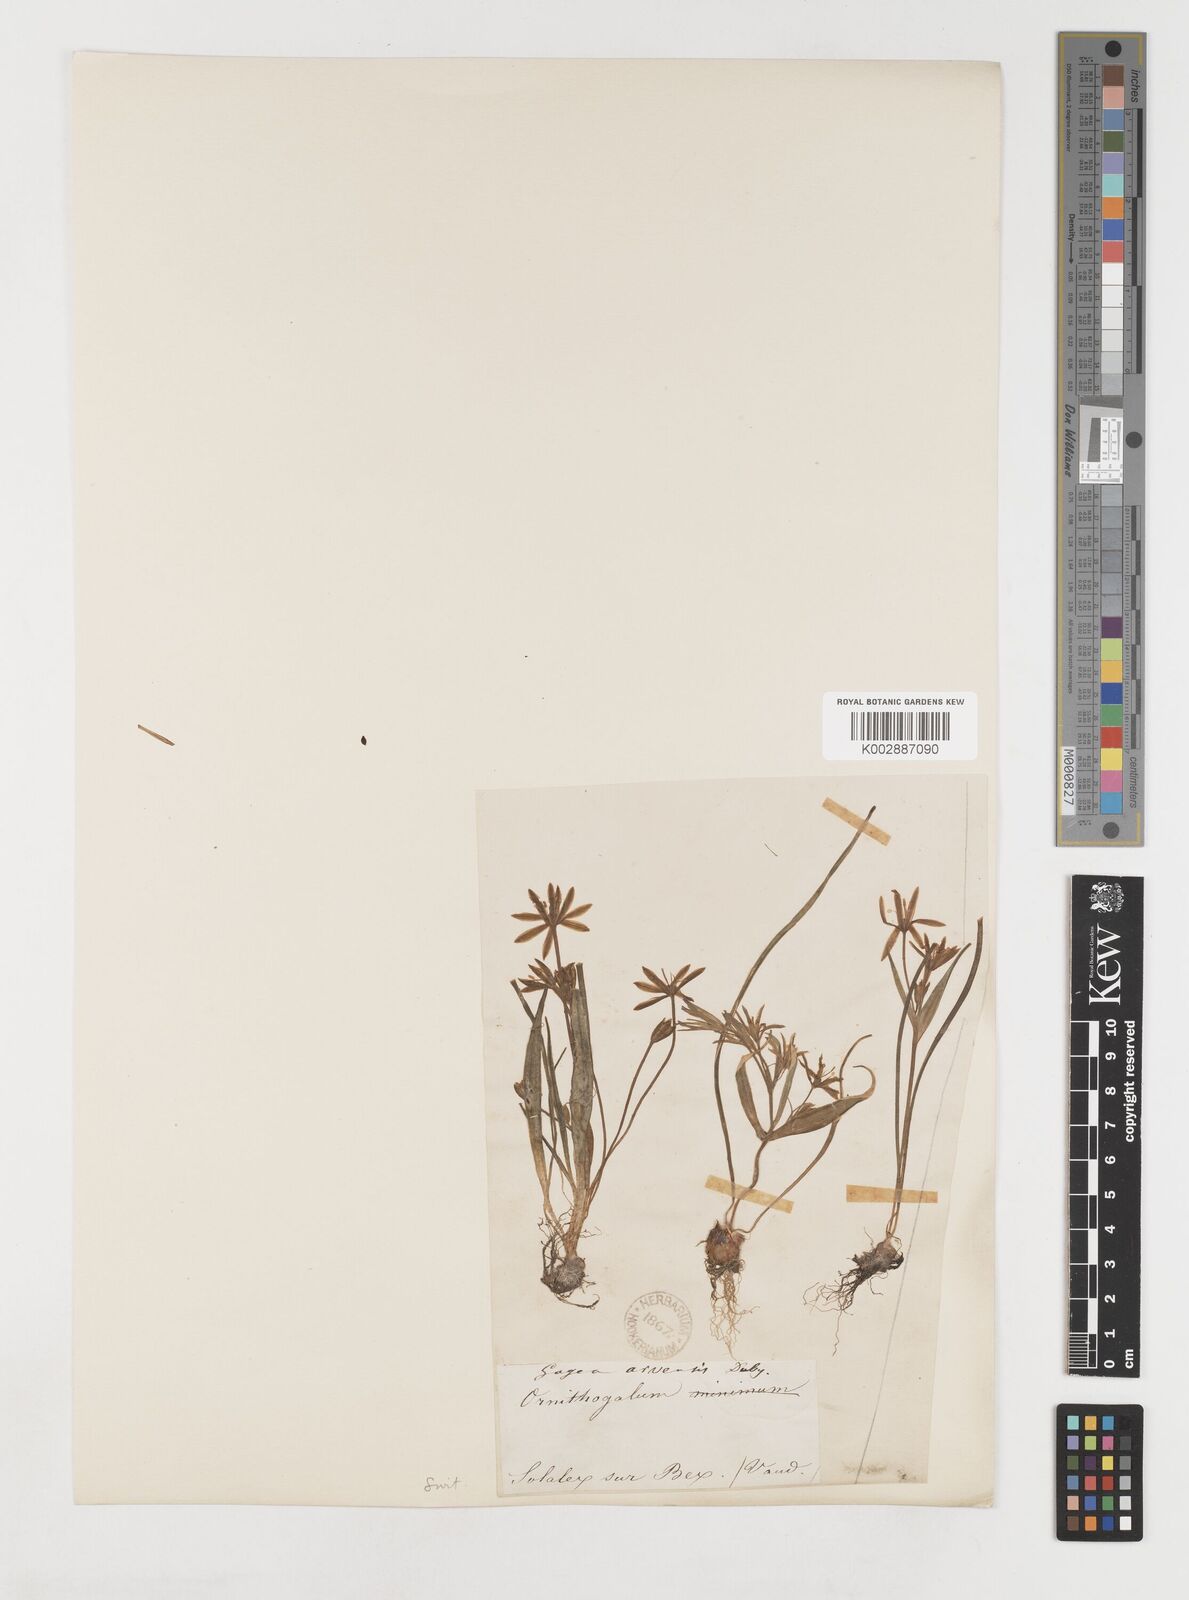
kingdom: Plantae
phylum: Tracheophyta
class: Liliopsida
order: Liliales
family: Liliaceae
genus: Gagea
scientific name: Gagea minima
